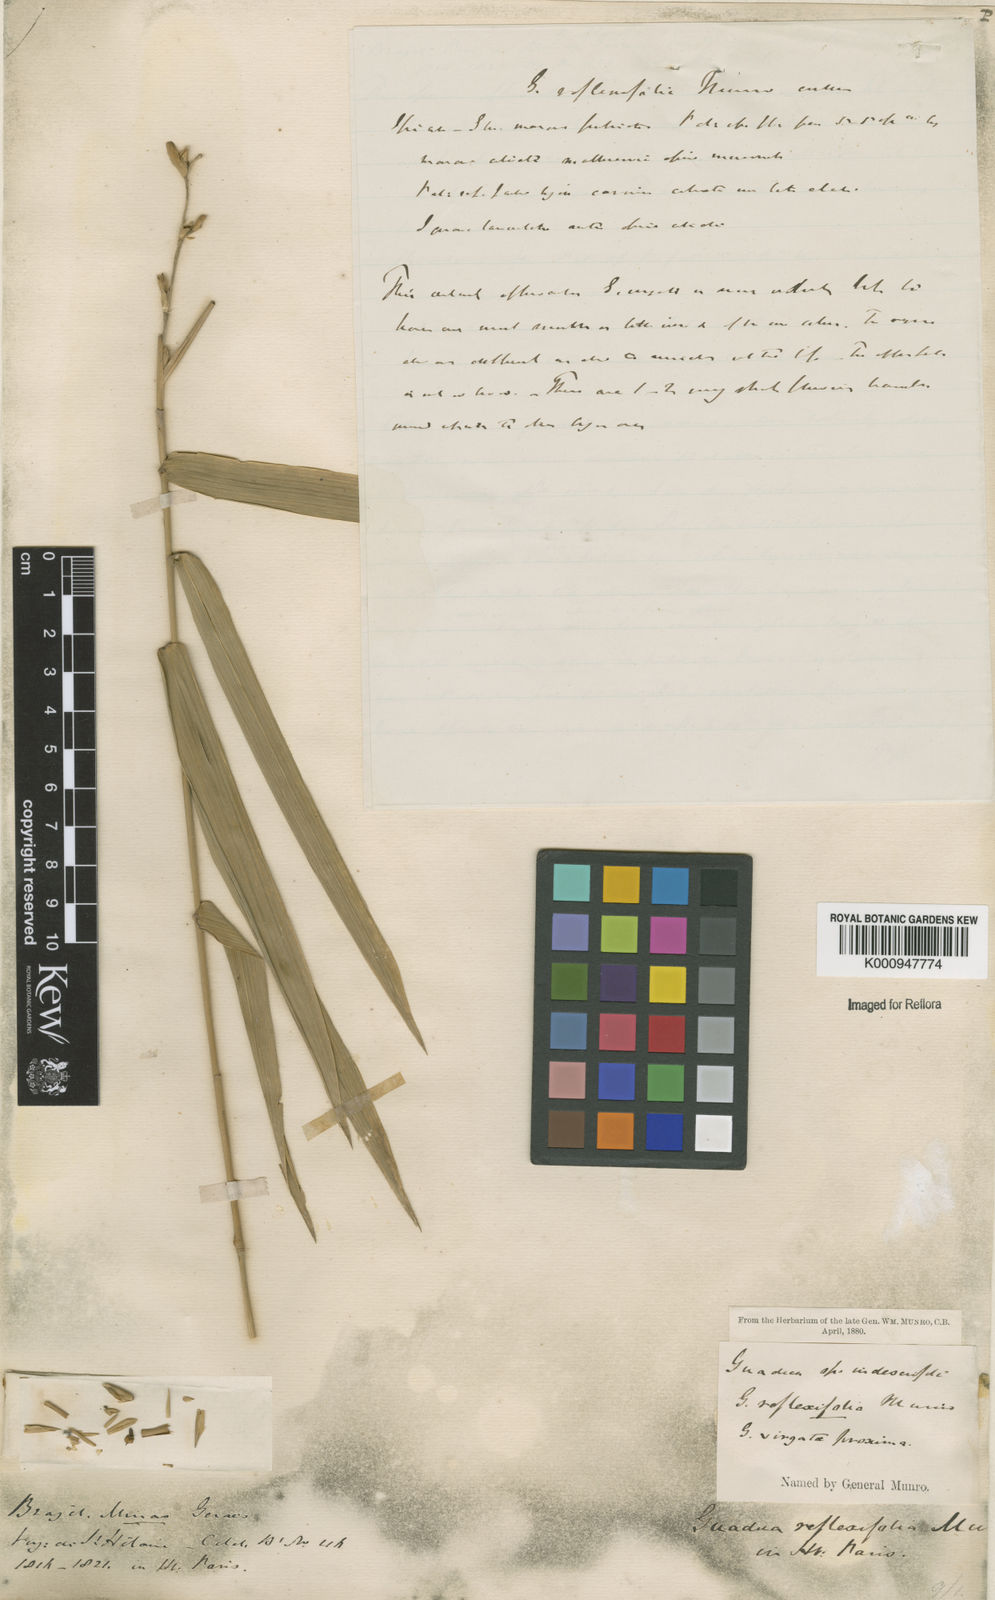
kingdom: Plantae
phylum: Tracheophyta
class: Liliopsida
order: Poales
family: Poaceae
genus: Guadua
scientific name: Guadua paniculata
